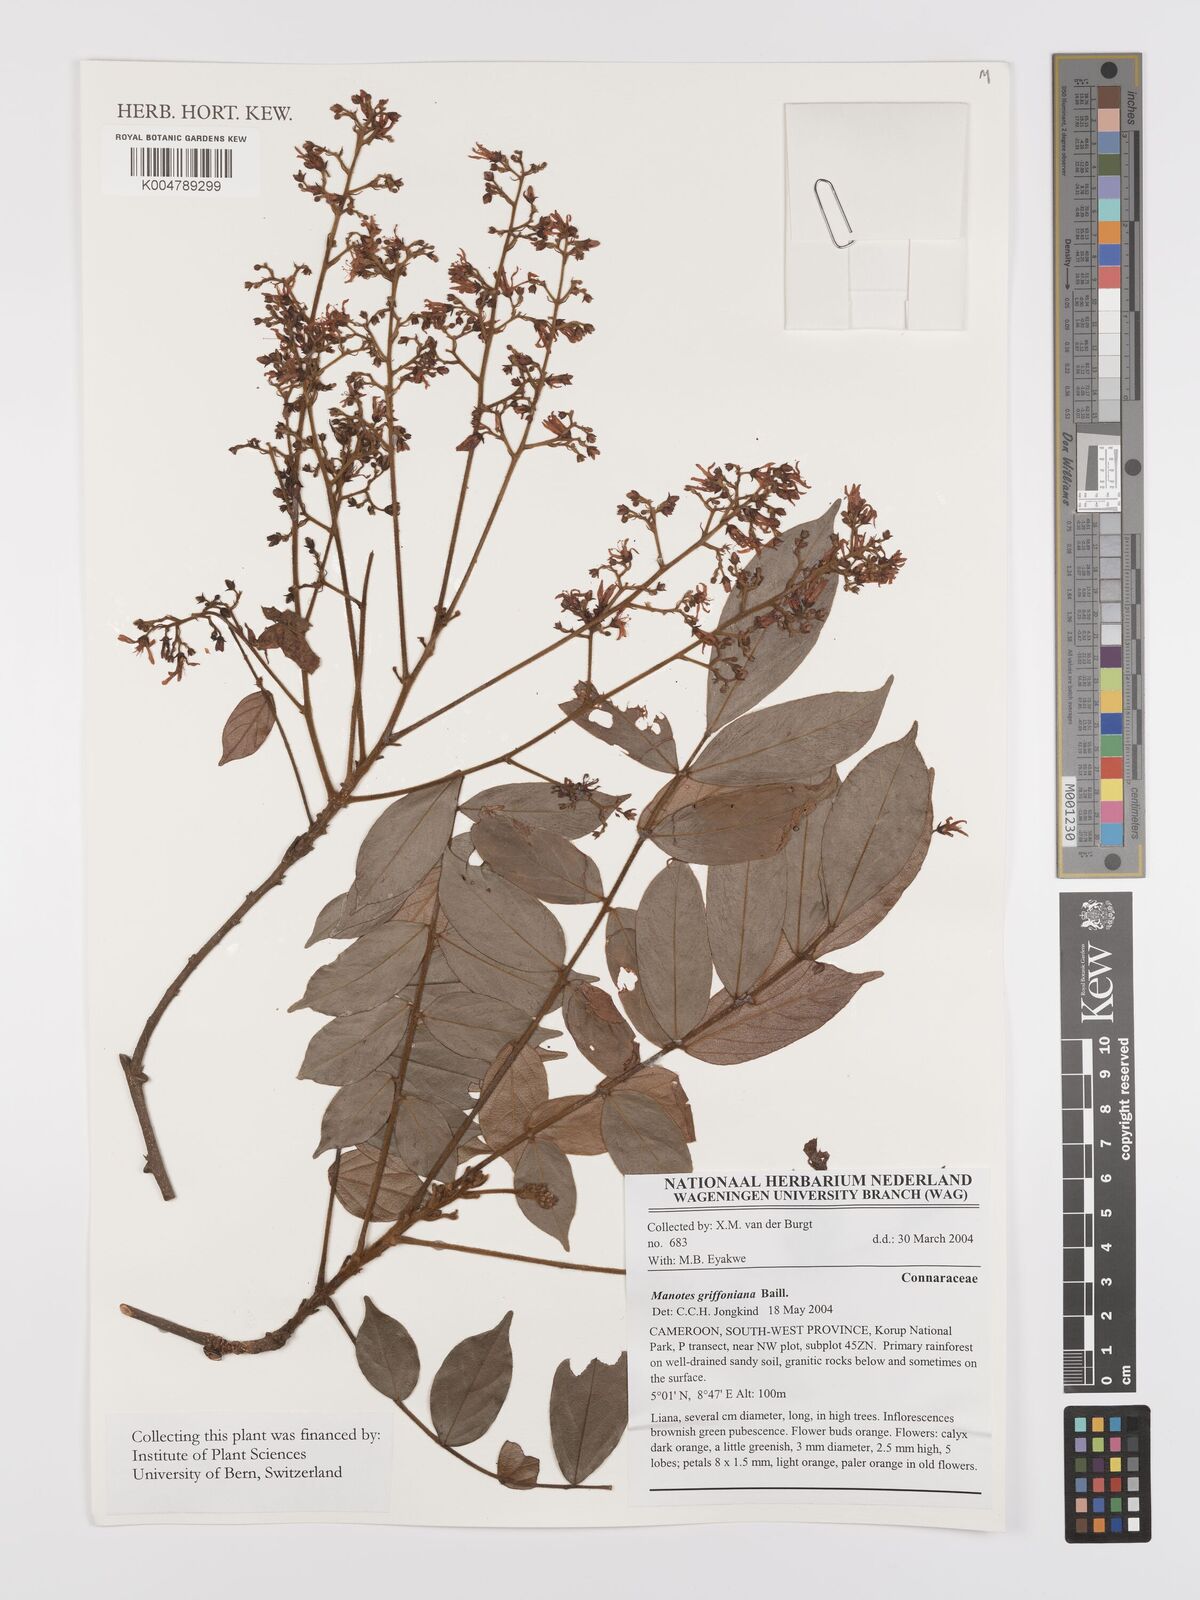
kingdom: Plantae
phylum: Tracheophyta
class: Magnoliopsida
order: Oxalidales
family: Connaraceae
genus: Manotes
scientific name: Manotes griffoniana
